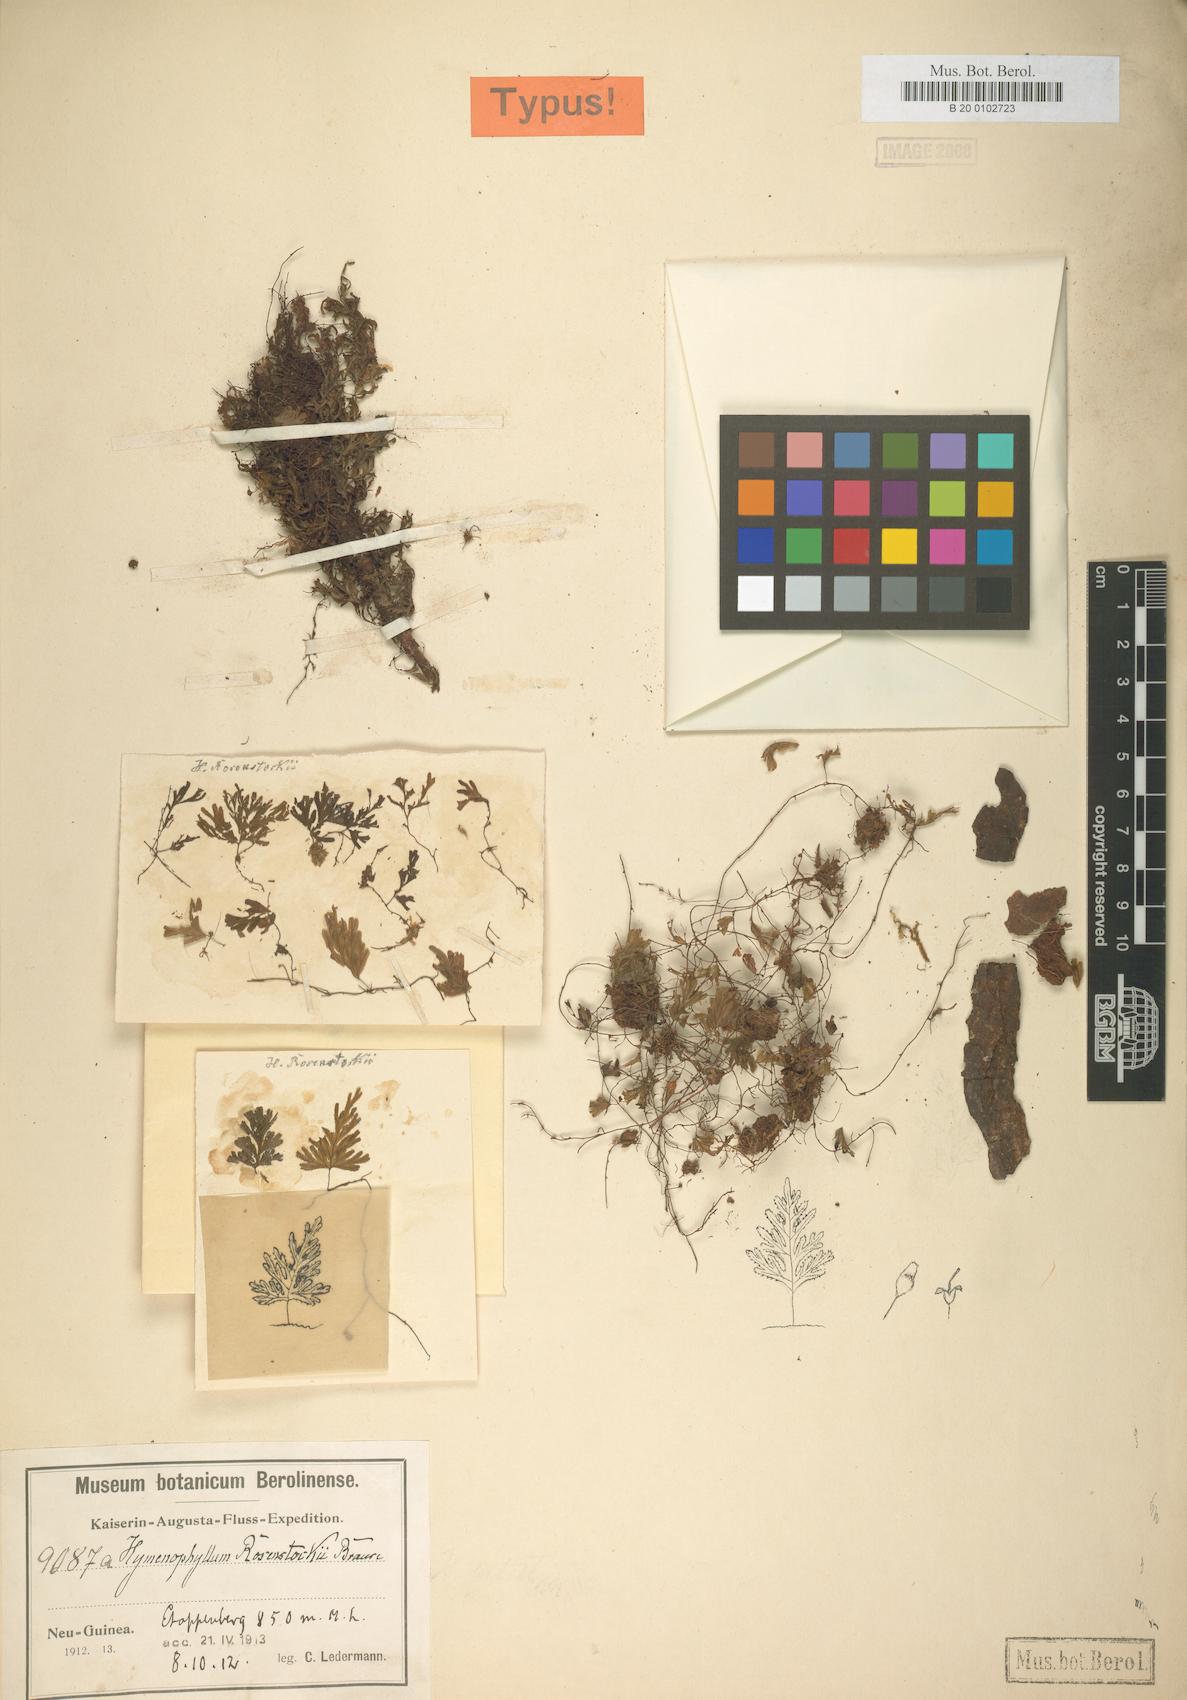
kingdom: Plantae
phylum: Tracheophyta
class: Polypodiopsida
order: Hymenophyllales
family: Hymenophyllaceae
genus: Hymenophyllum
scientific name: Hymenophyllum holochilum
